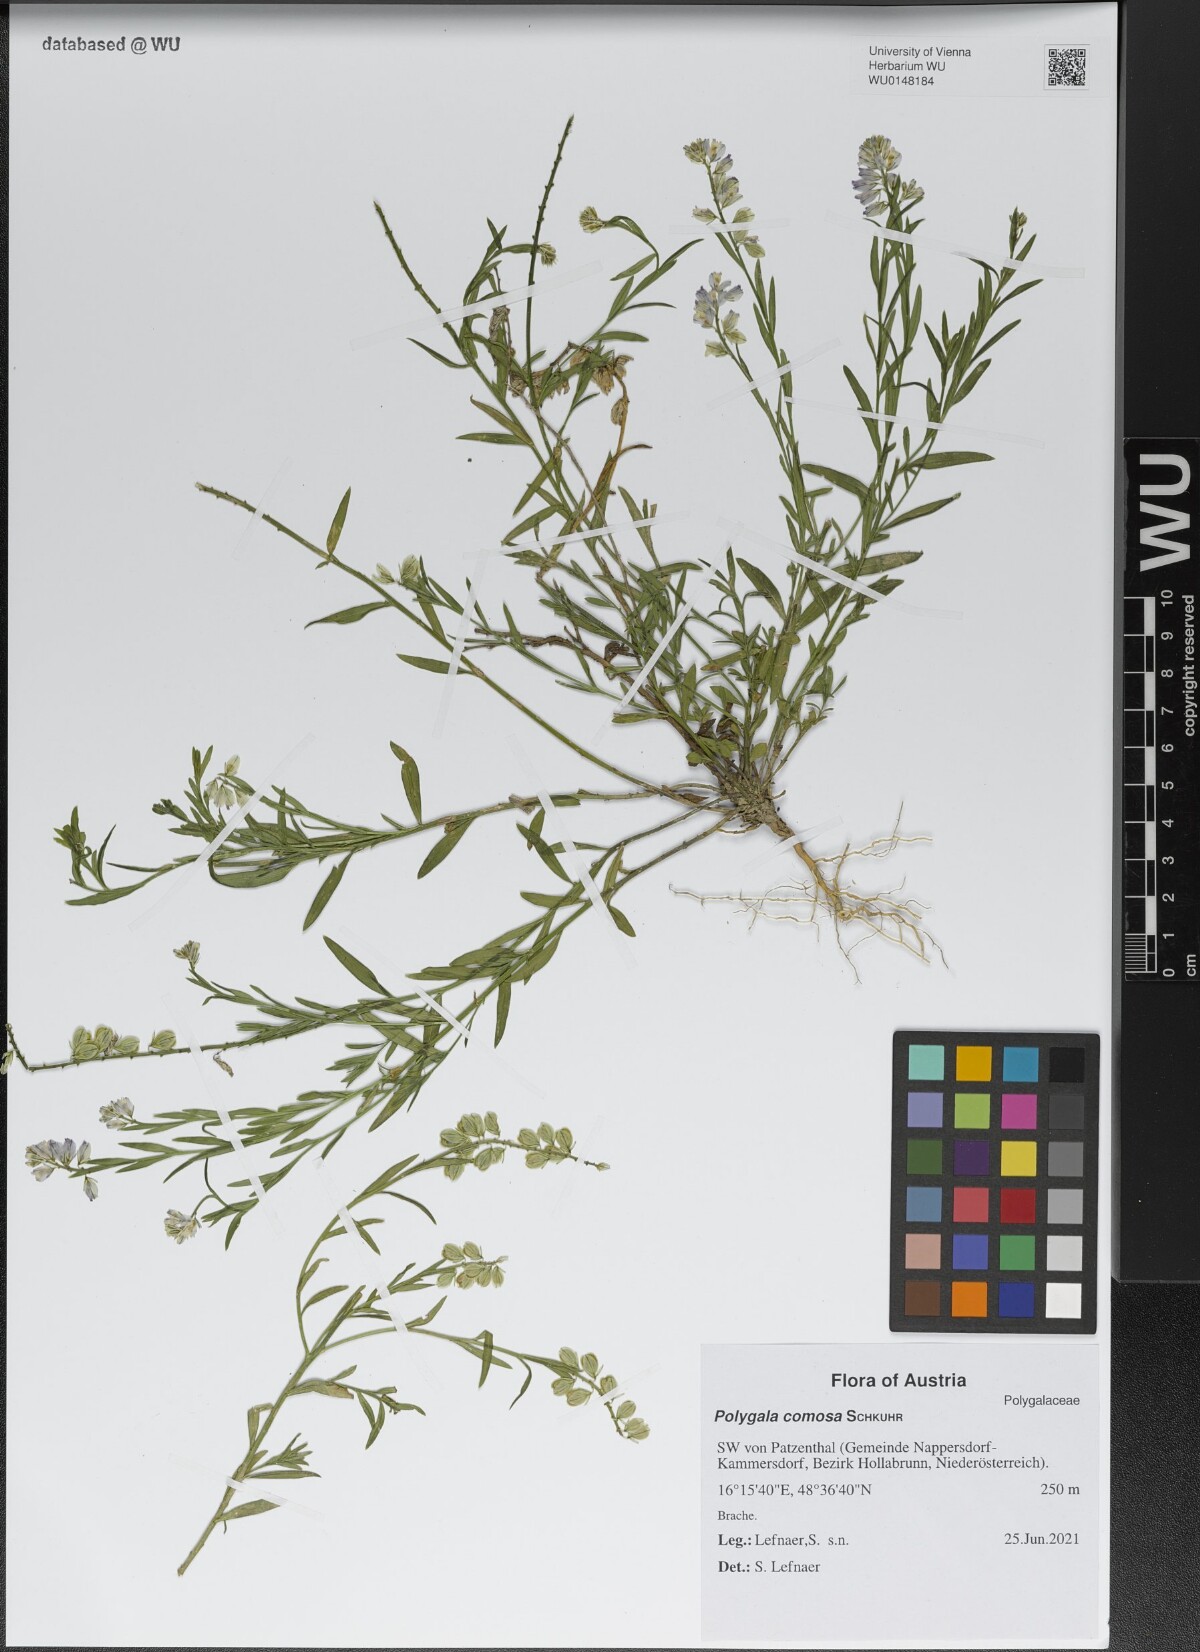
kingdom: Plantae
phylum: Tracheophyta
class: Magnoliopsida
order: Fabales
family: Polygalaceae
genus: Polygala
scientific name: Polygala comosa
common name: Tufted milkwort
